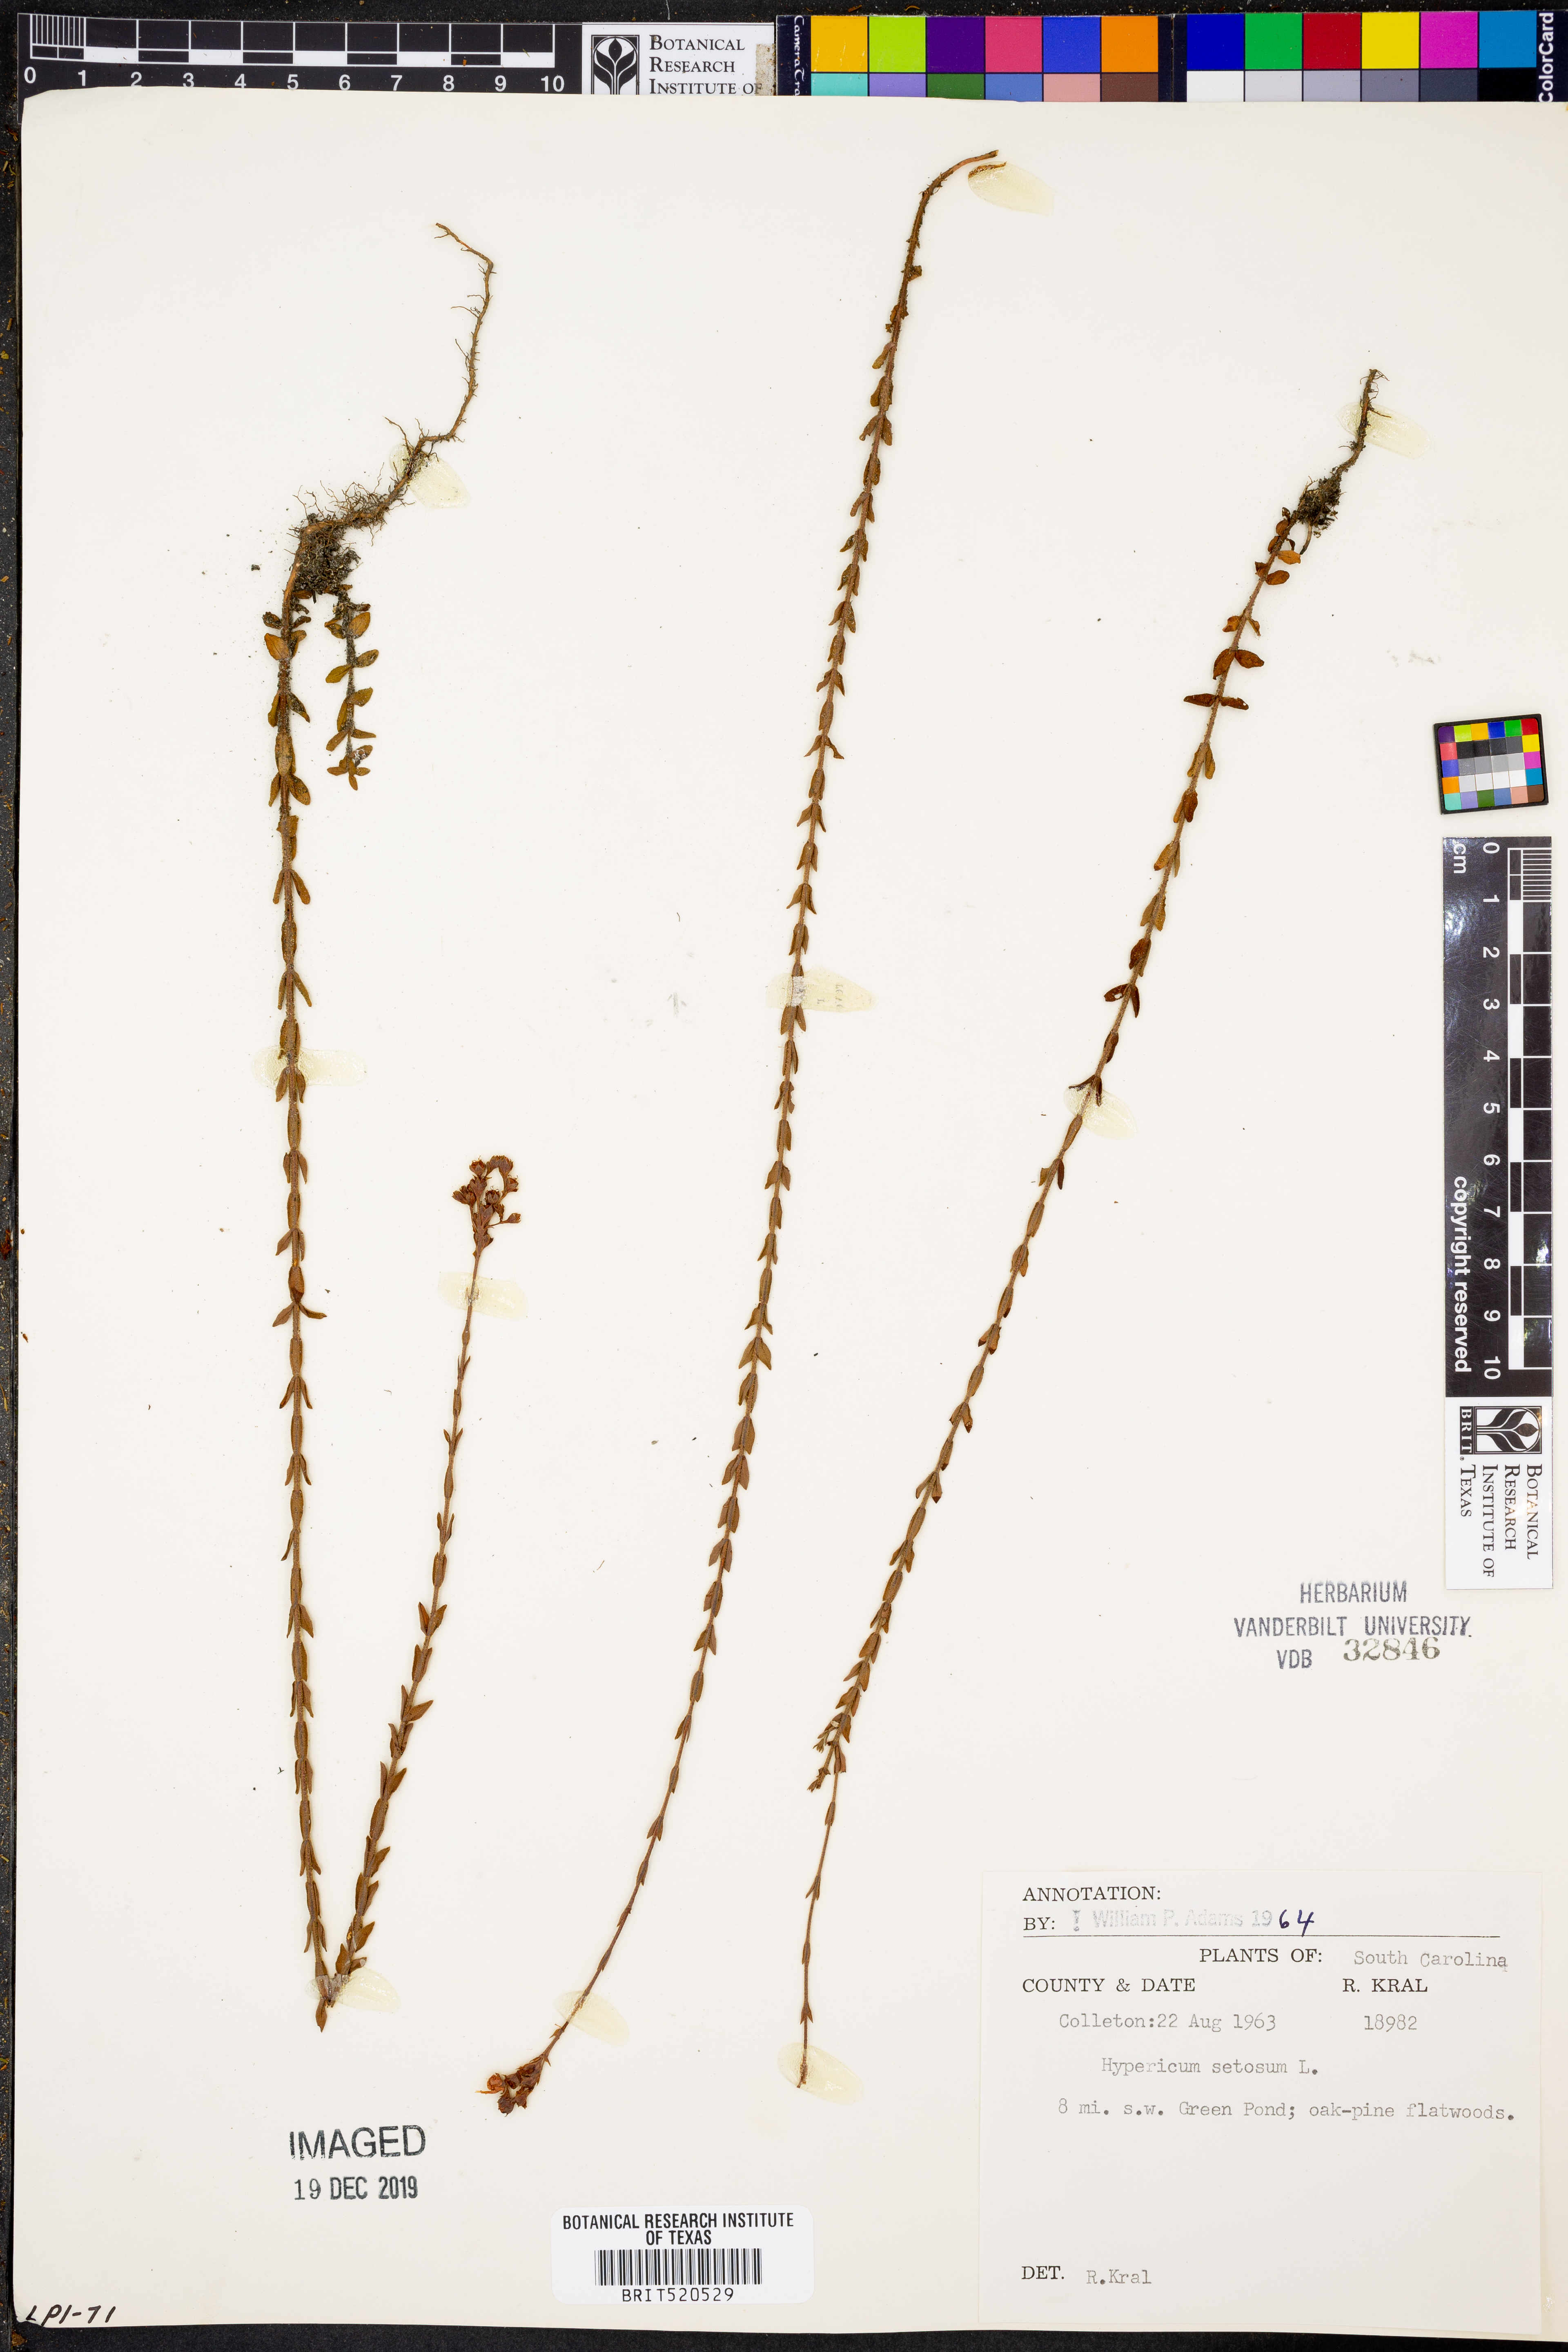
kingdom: Plantae
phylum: Tracheophyta
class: Magnoliopsida
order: Malpighiales
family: Hypericaceae
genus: Hypericum
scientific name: Hypericum setosum
